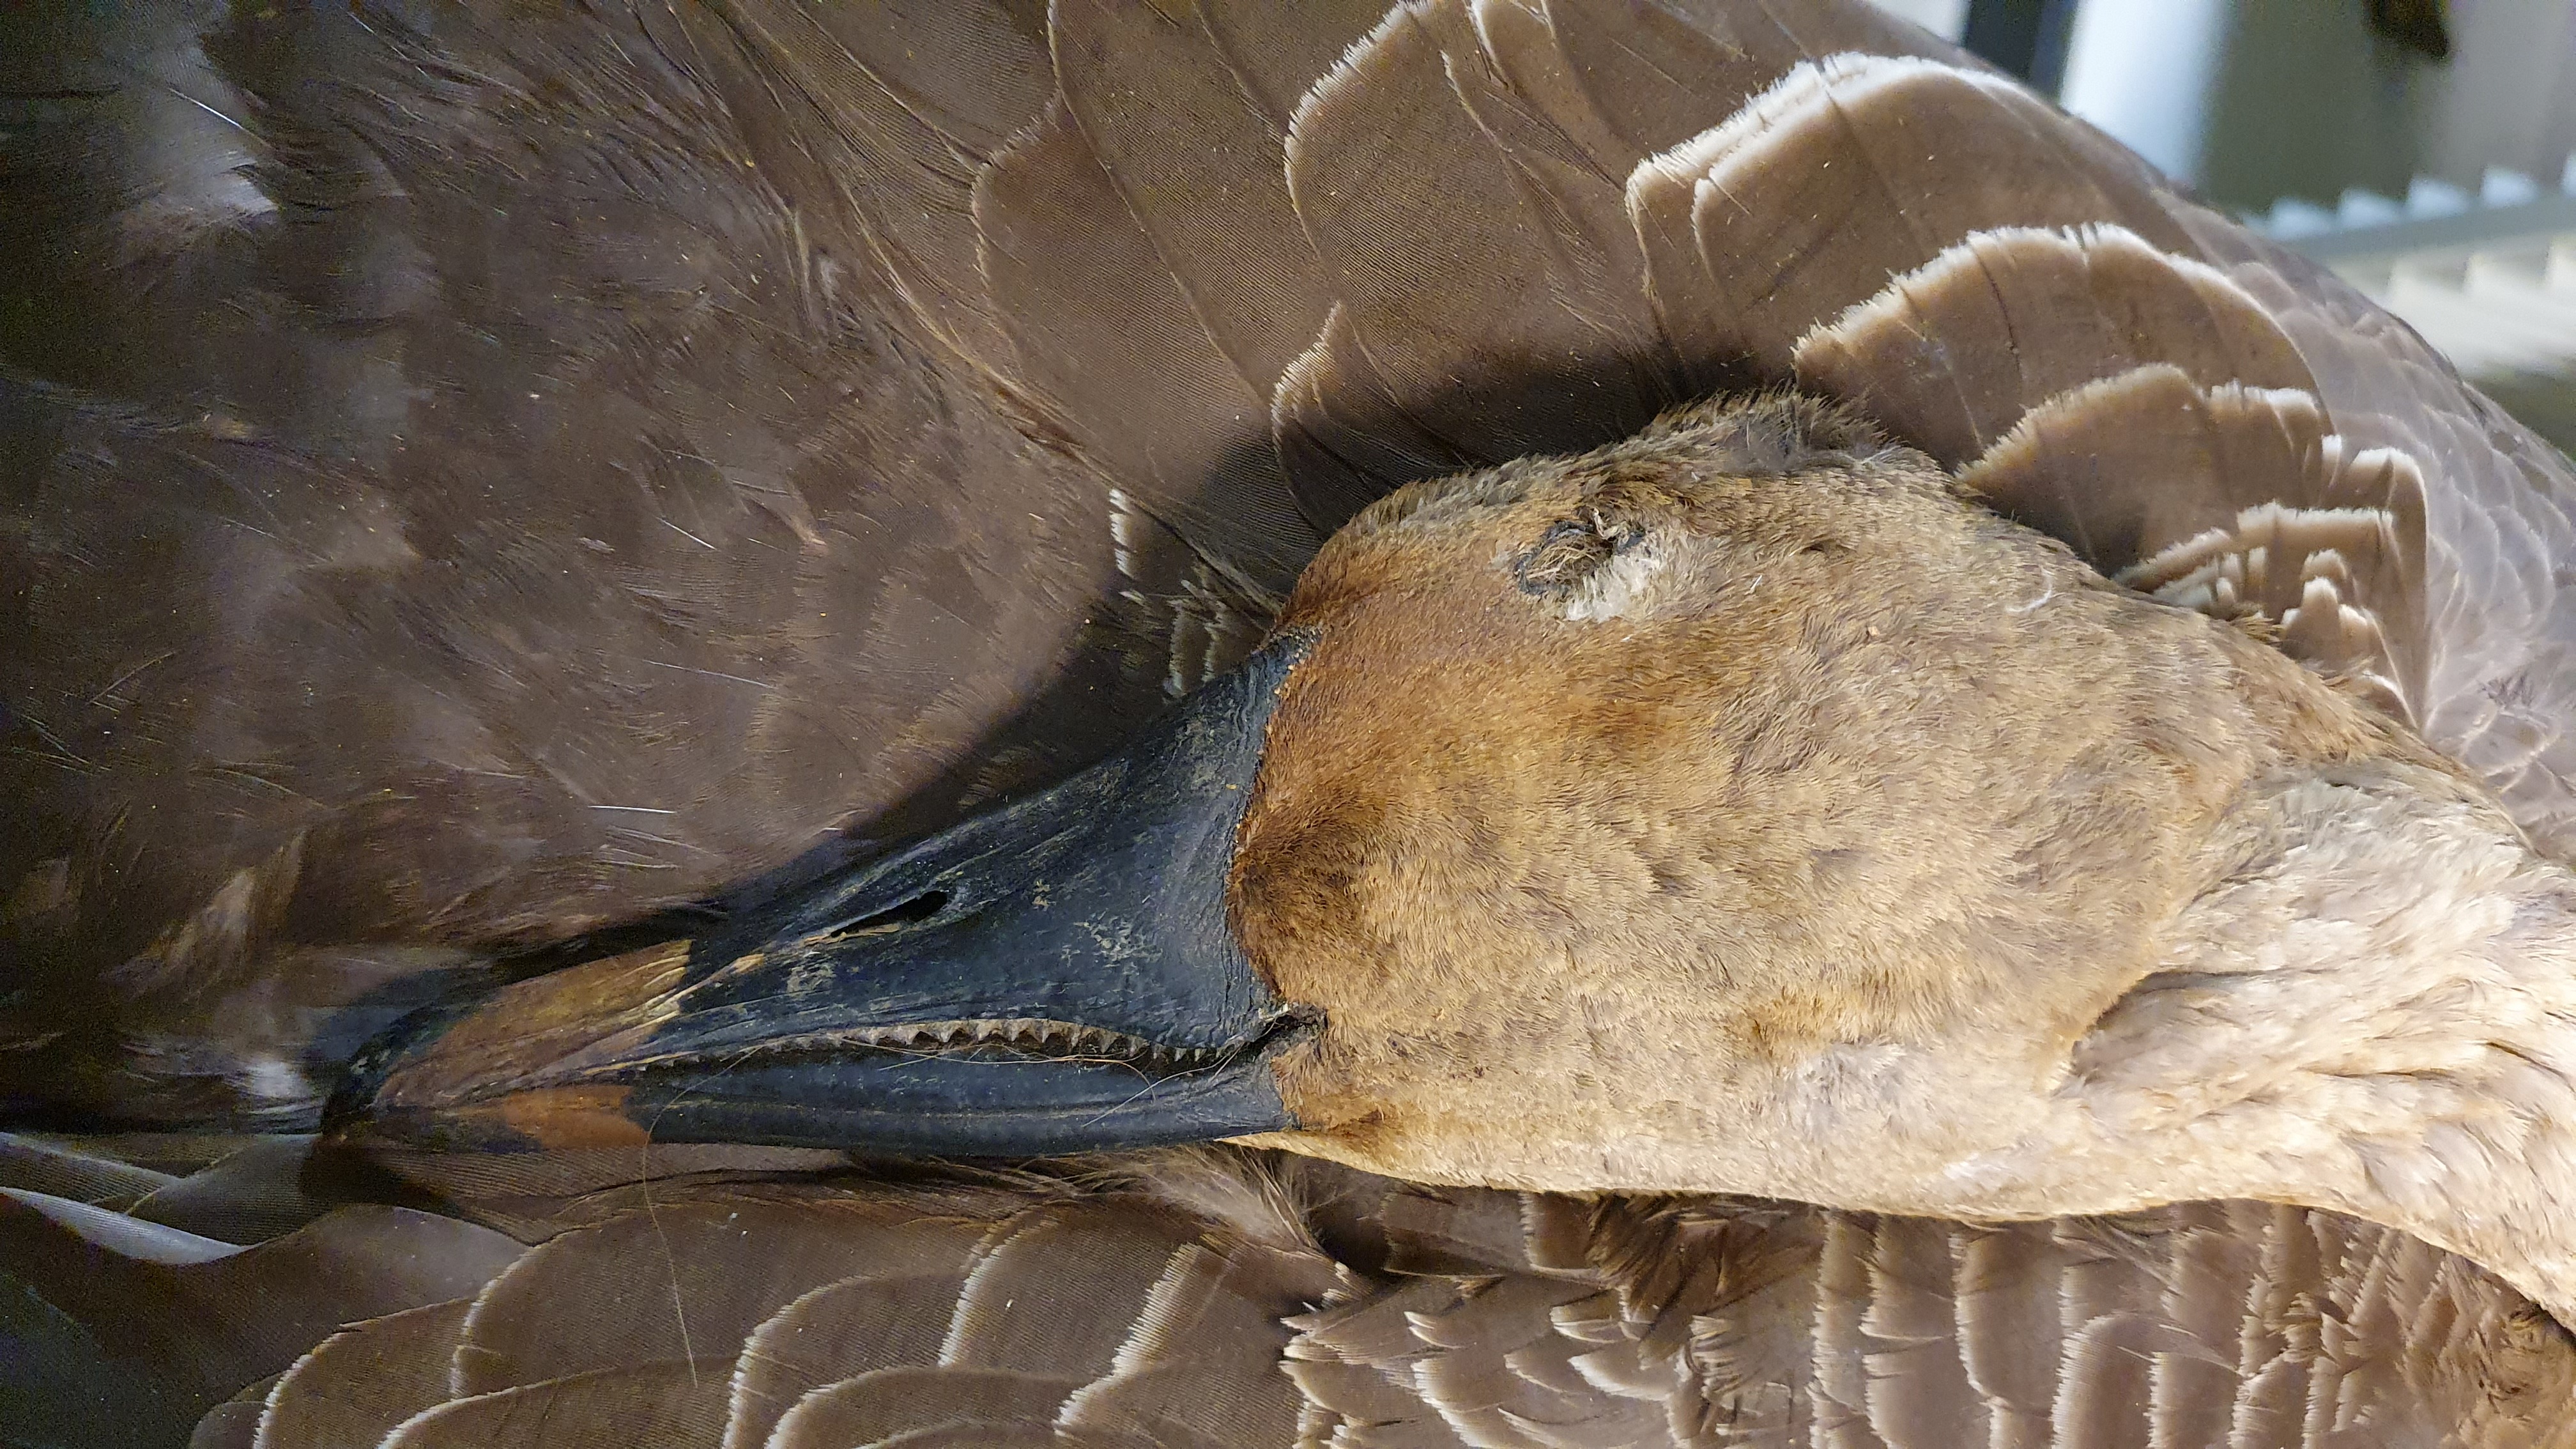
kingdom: Animalia
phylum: Chordata
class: Aves
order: Anseriformes
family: Anatidae
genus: Anser
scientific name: Anser fabalis
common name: Bean goose
